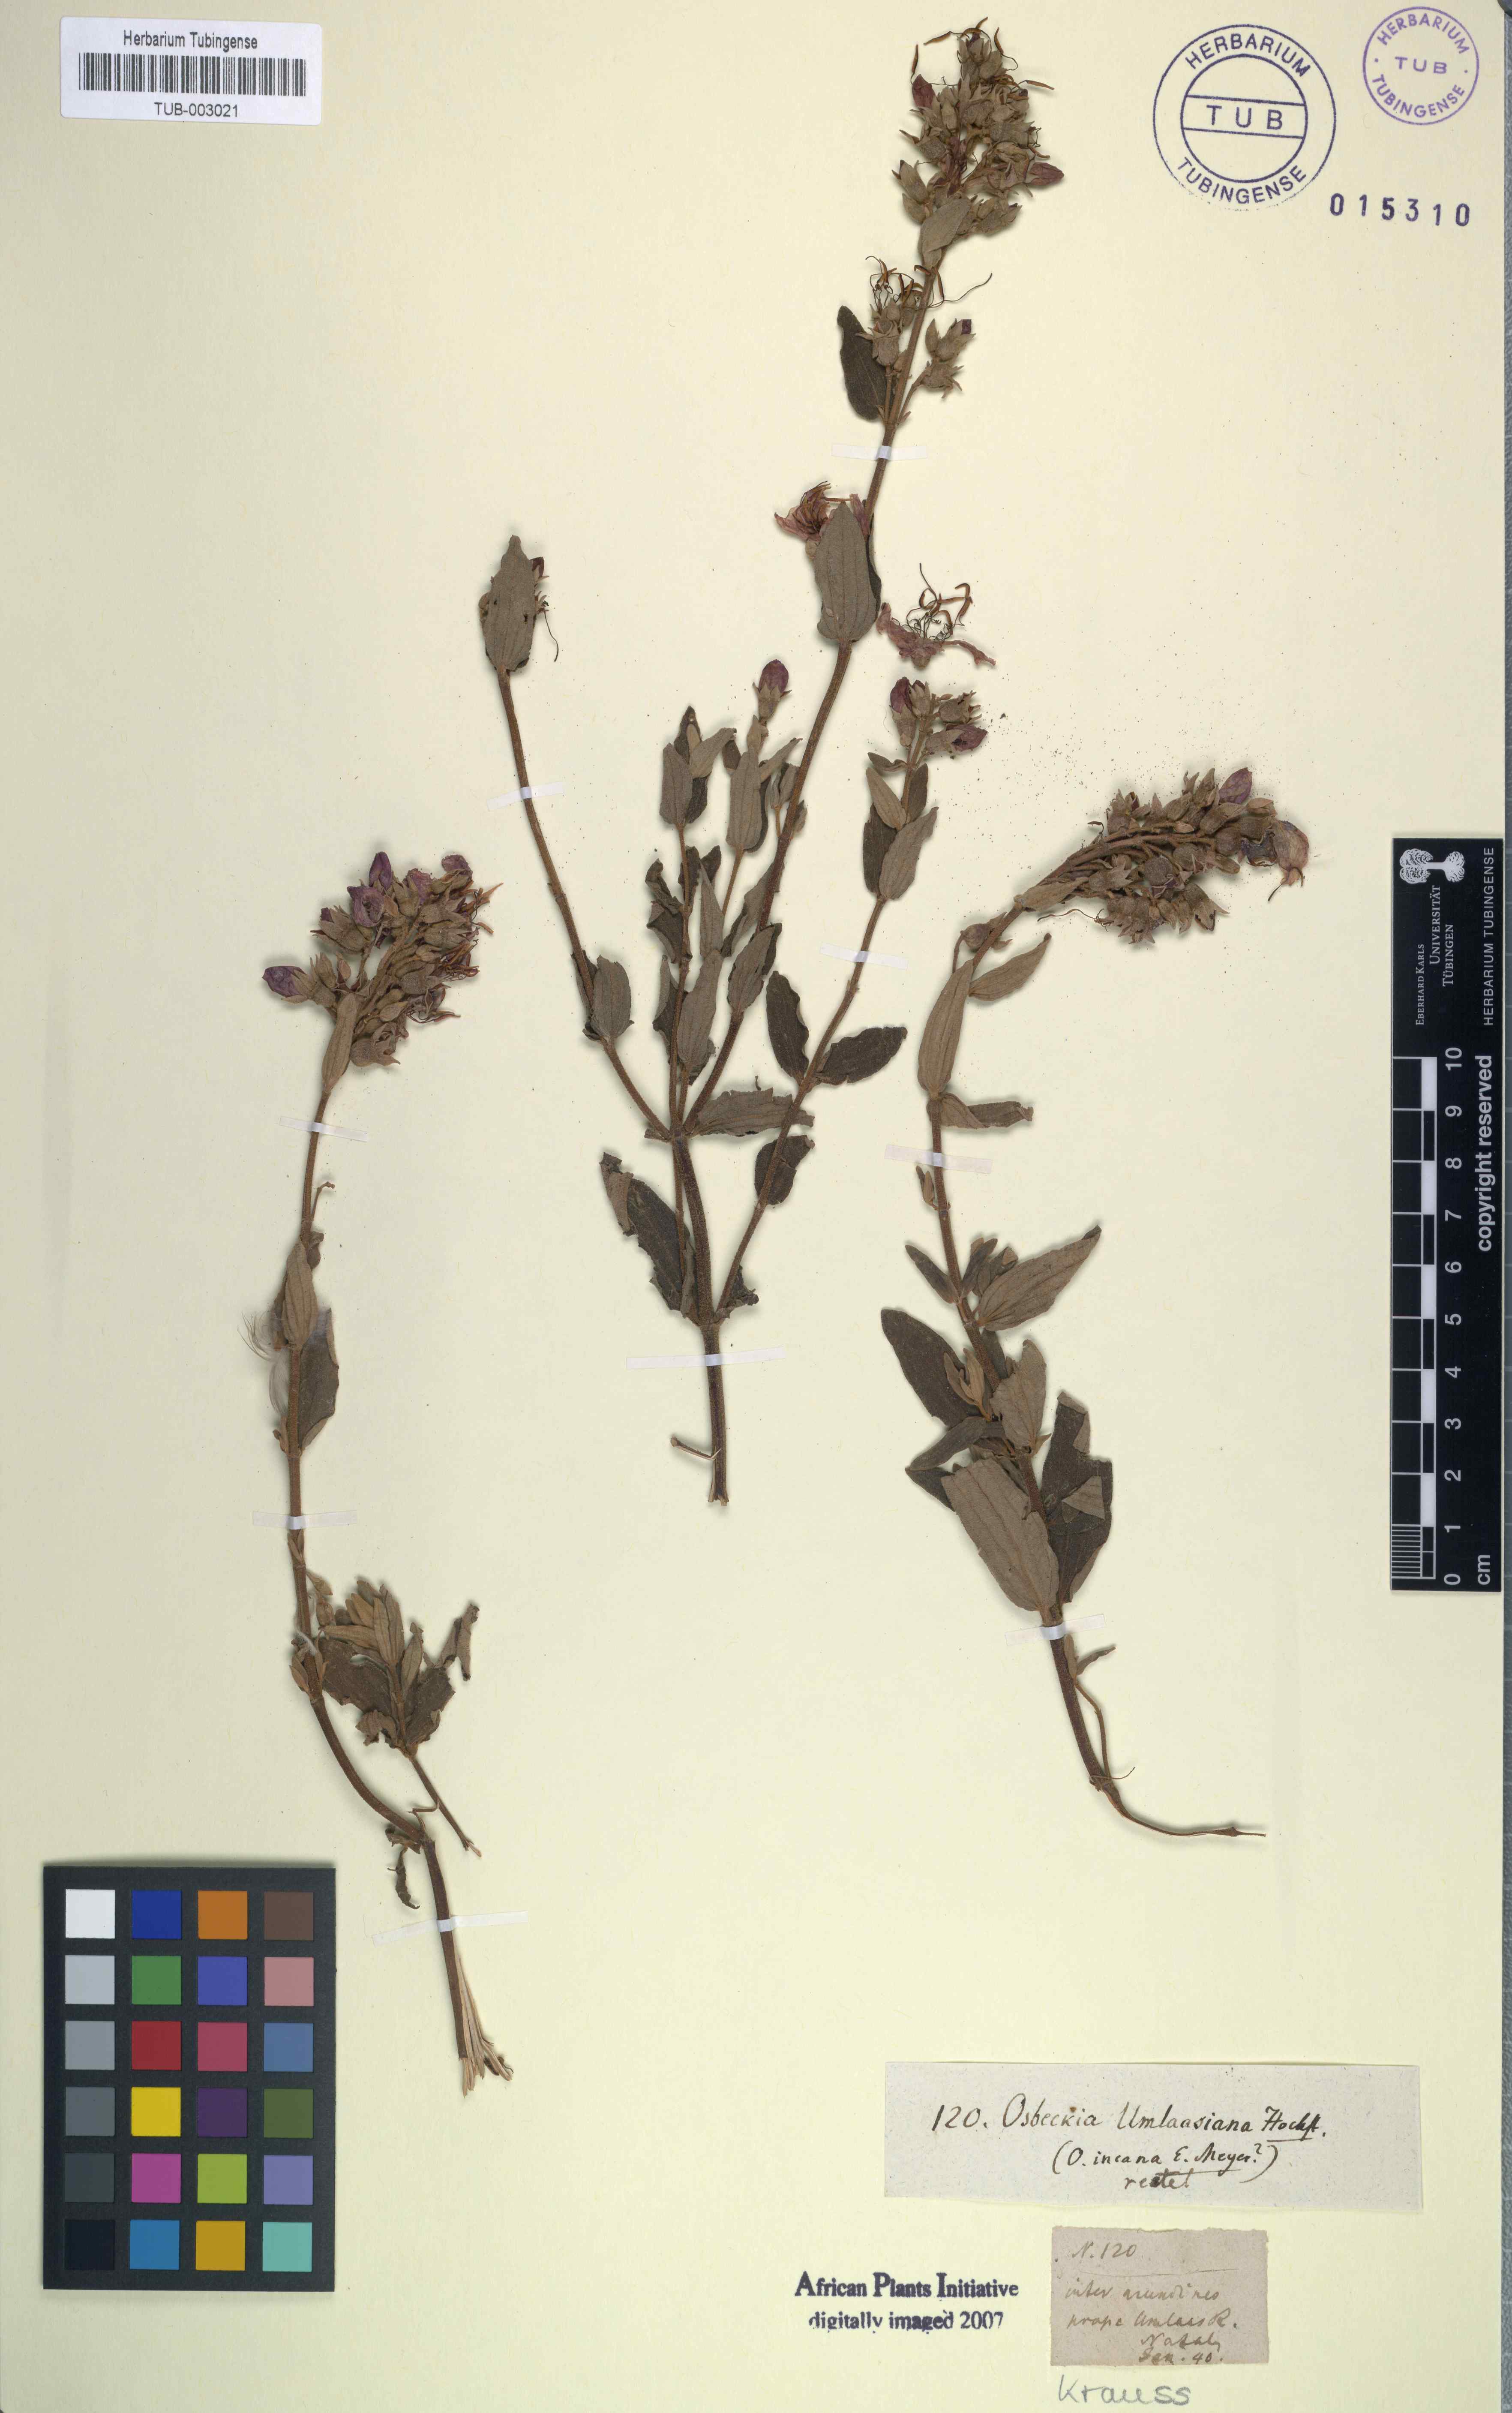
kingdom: Plantae
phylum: Tracheophyta
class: Magnoliopsida
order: Myrtales
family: Melastomataceae
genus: Argyrella
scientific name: Argyrella canescens
